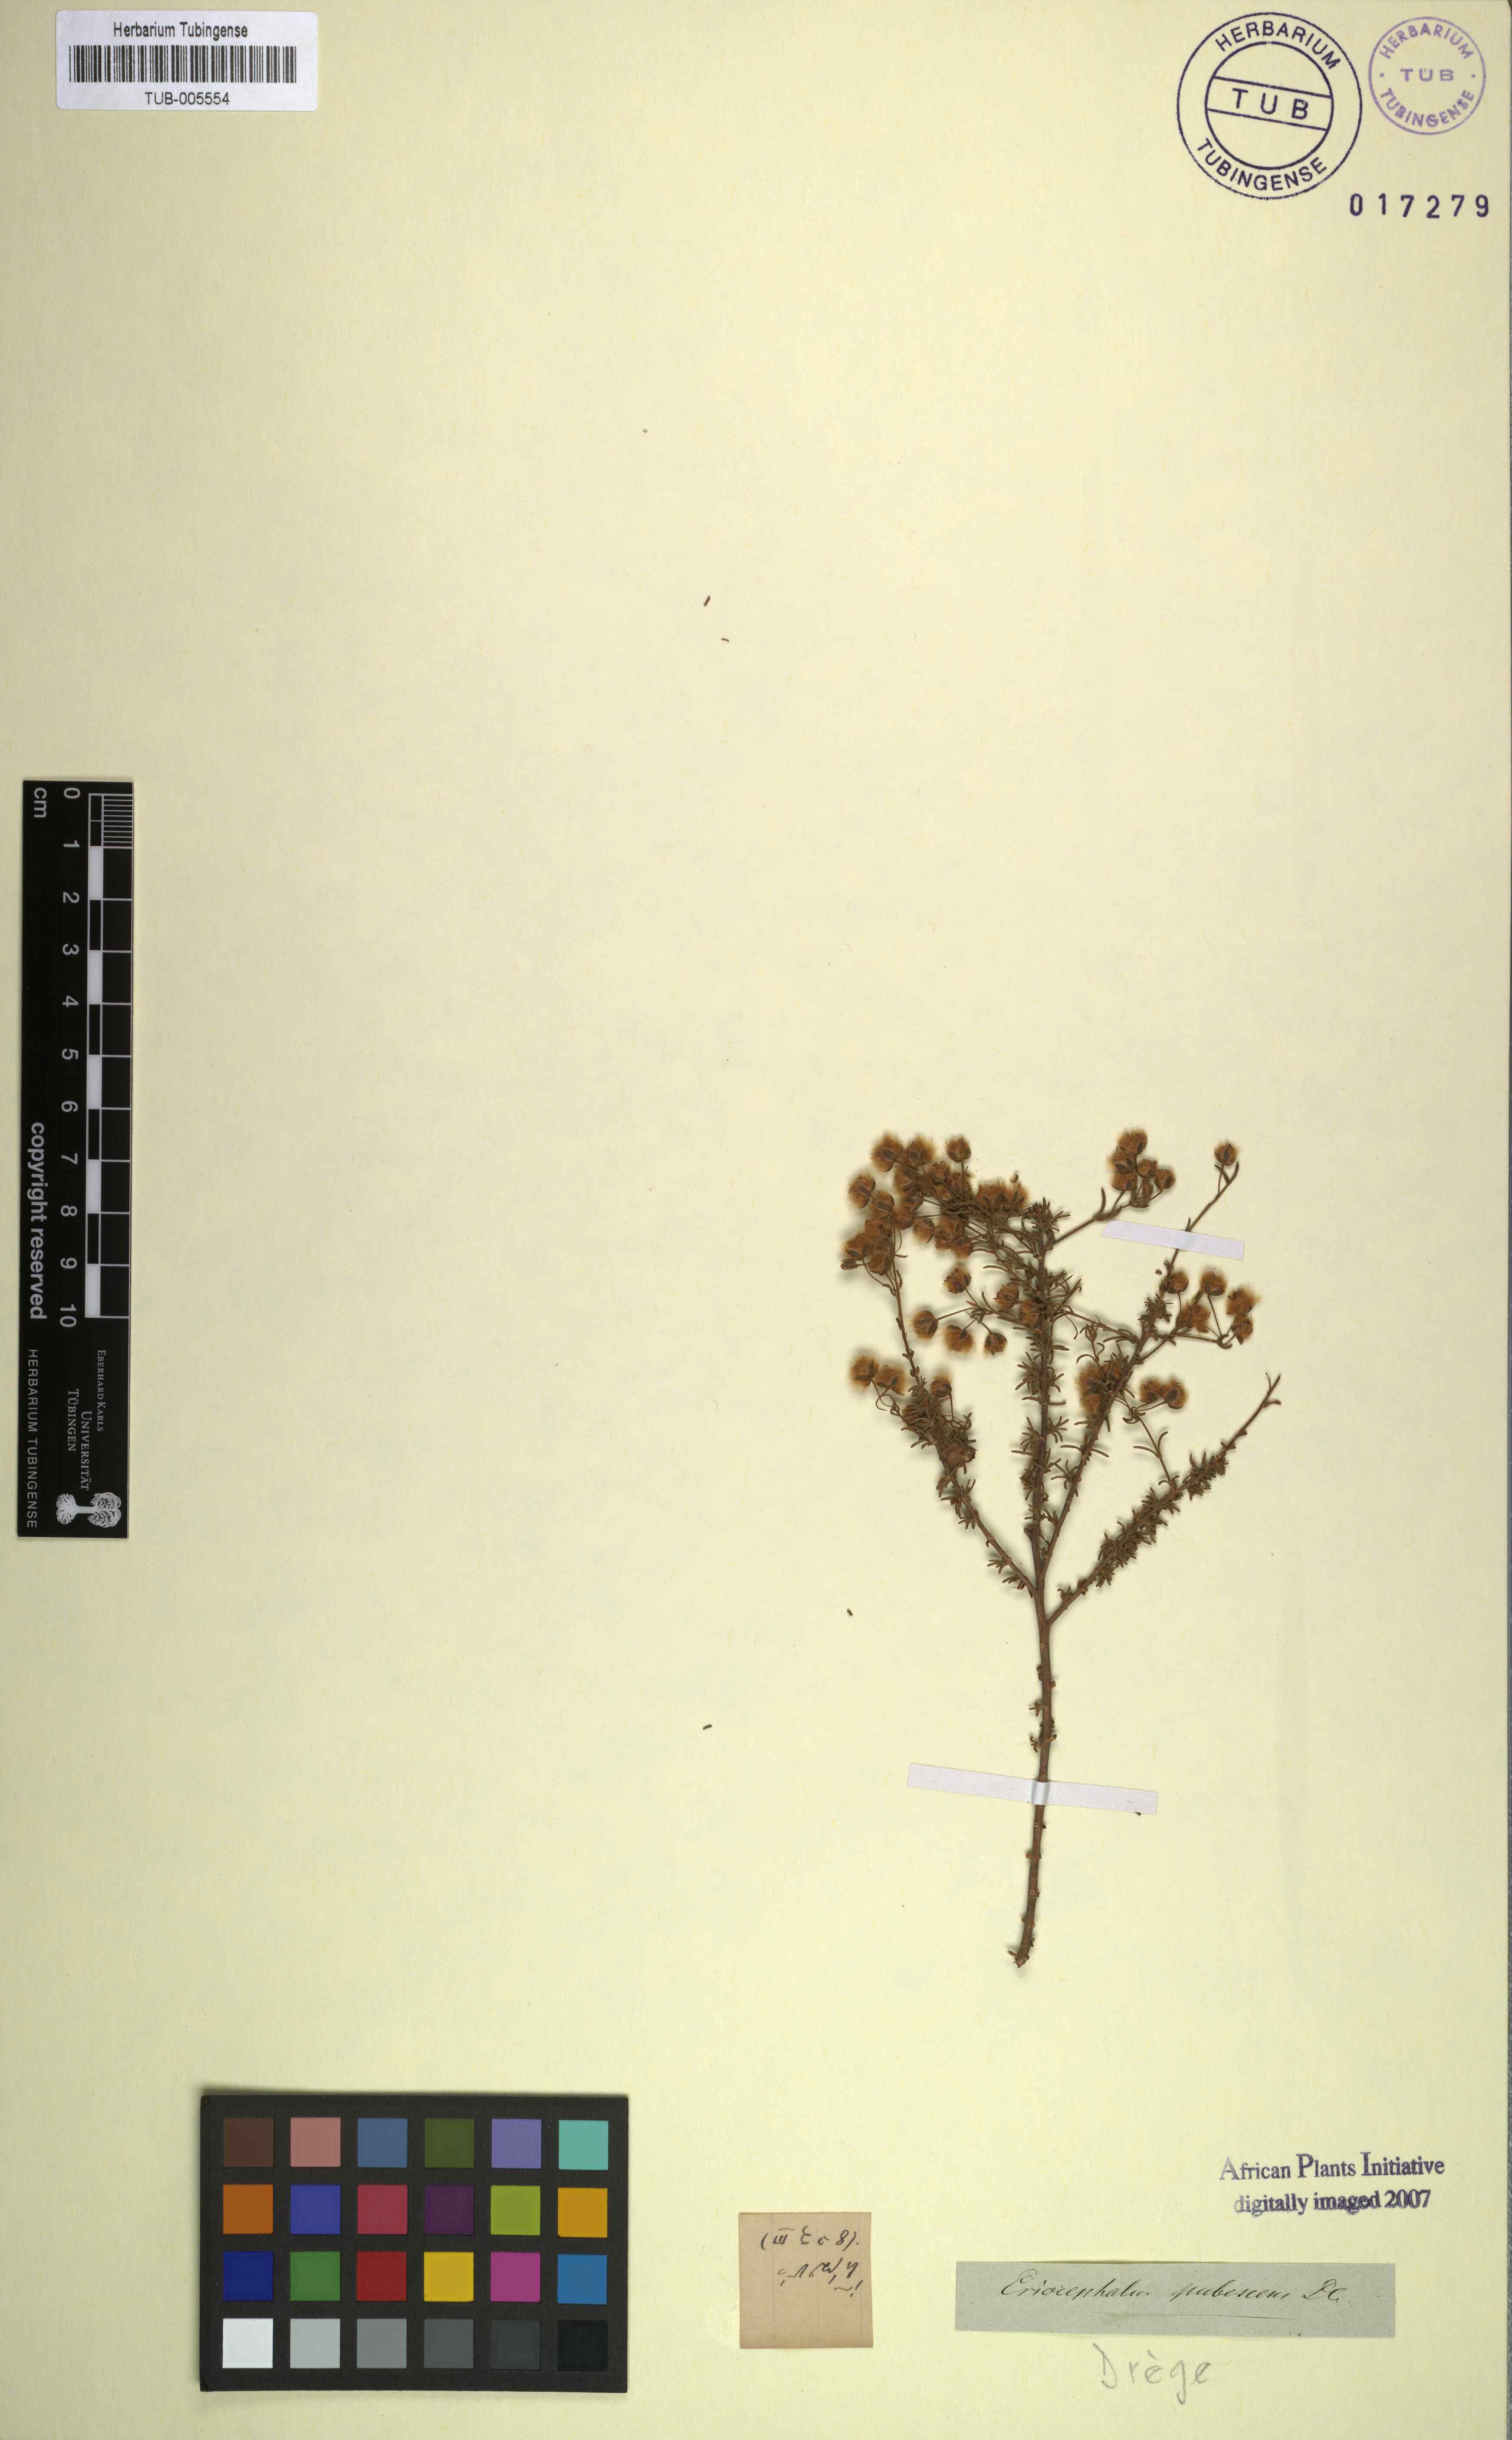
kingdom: Plantae
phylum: Tracheophyta
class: Magnoliopsida
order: Asterales
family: Asteraceae
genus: Eriocephalus
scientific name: Eriocephalus microphyllus
